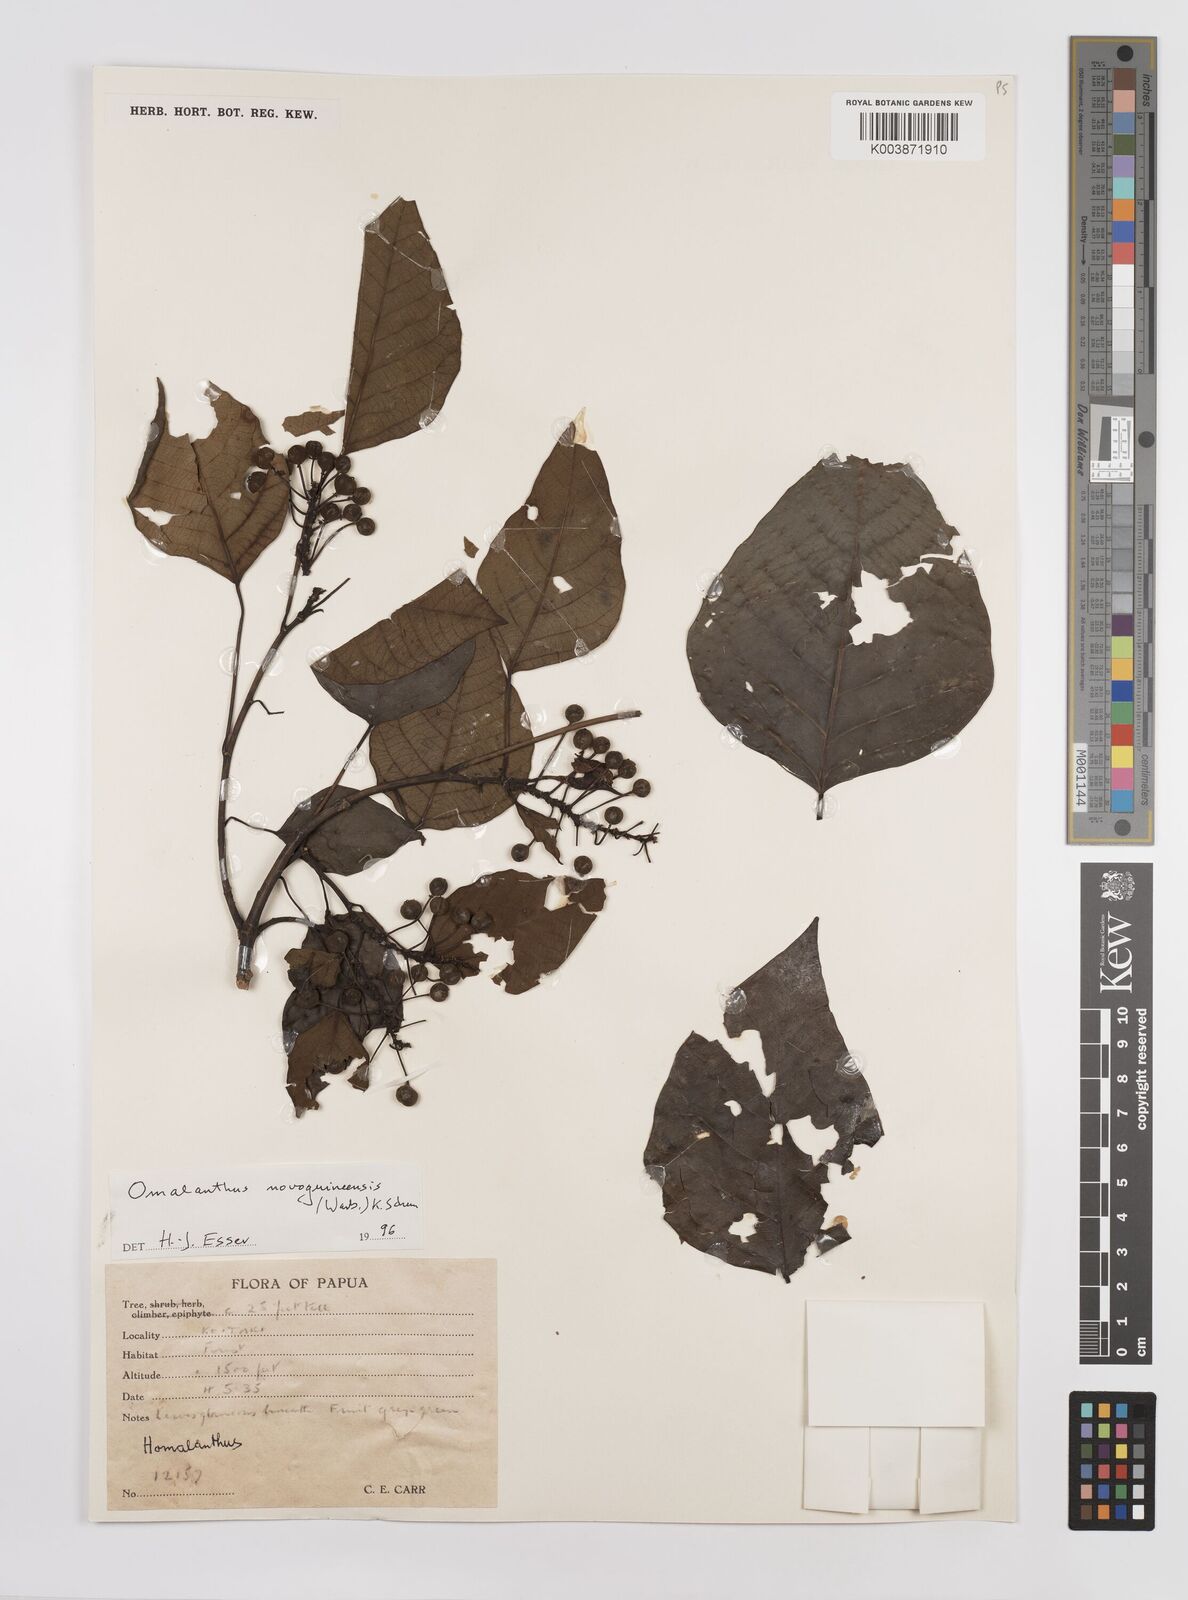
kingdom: Plantae
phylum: Tracheophyta
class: Magnoliopsida
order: Malpighiales
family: Euphorbiaceae
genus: Homalanthus
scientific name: Homalanthus novoguineensis
